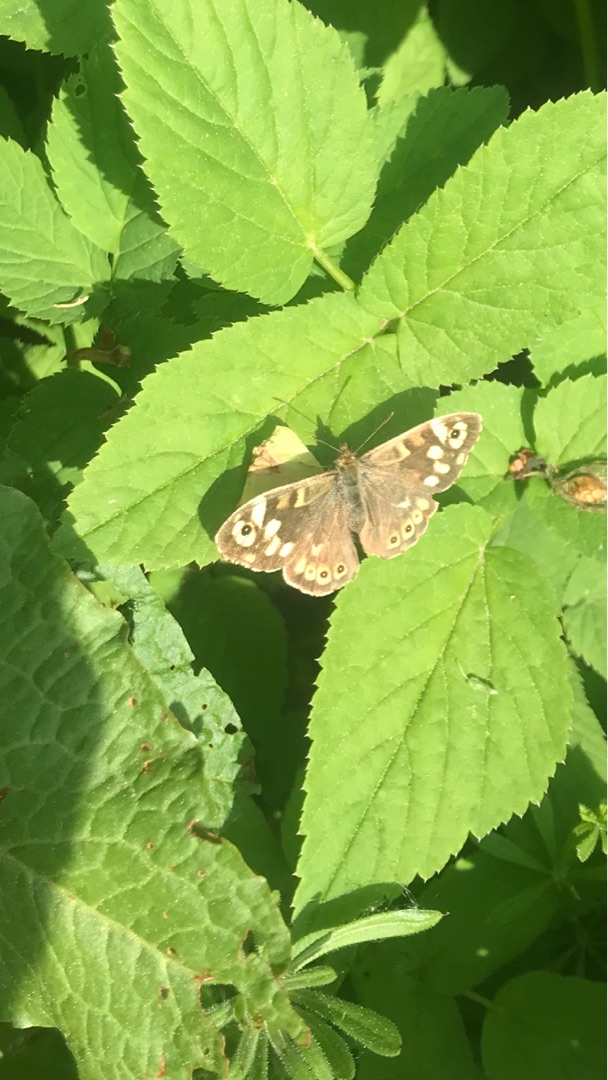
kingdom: Animalia
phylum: Arthropoda
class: Insecta
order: Lepidoptera
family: Nymphalidae
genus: Pararge
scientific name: Pararge aegeria
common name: Skovrandøje
